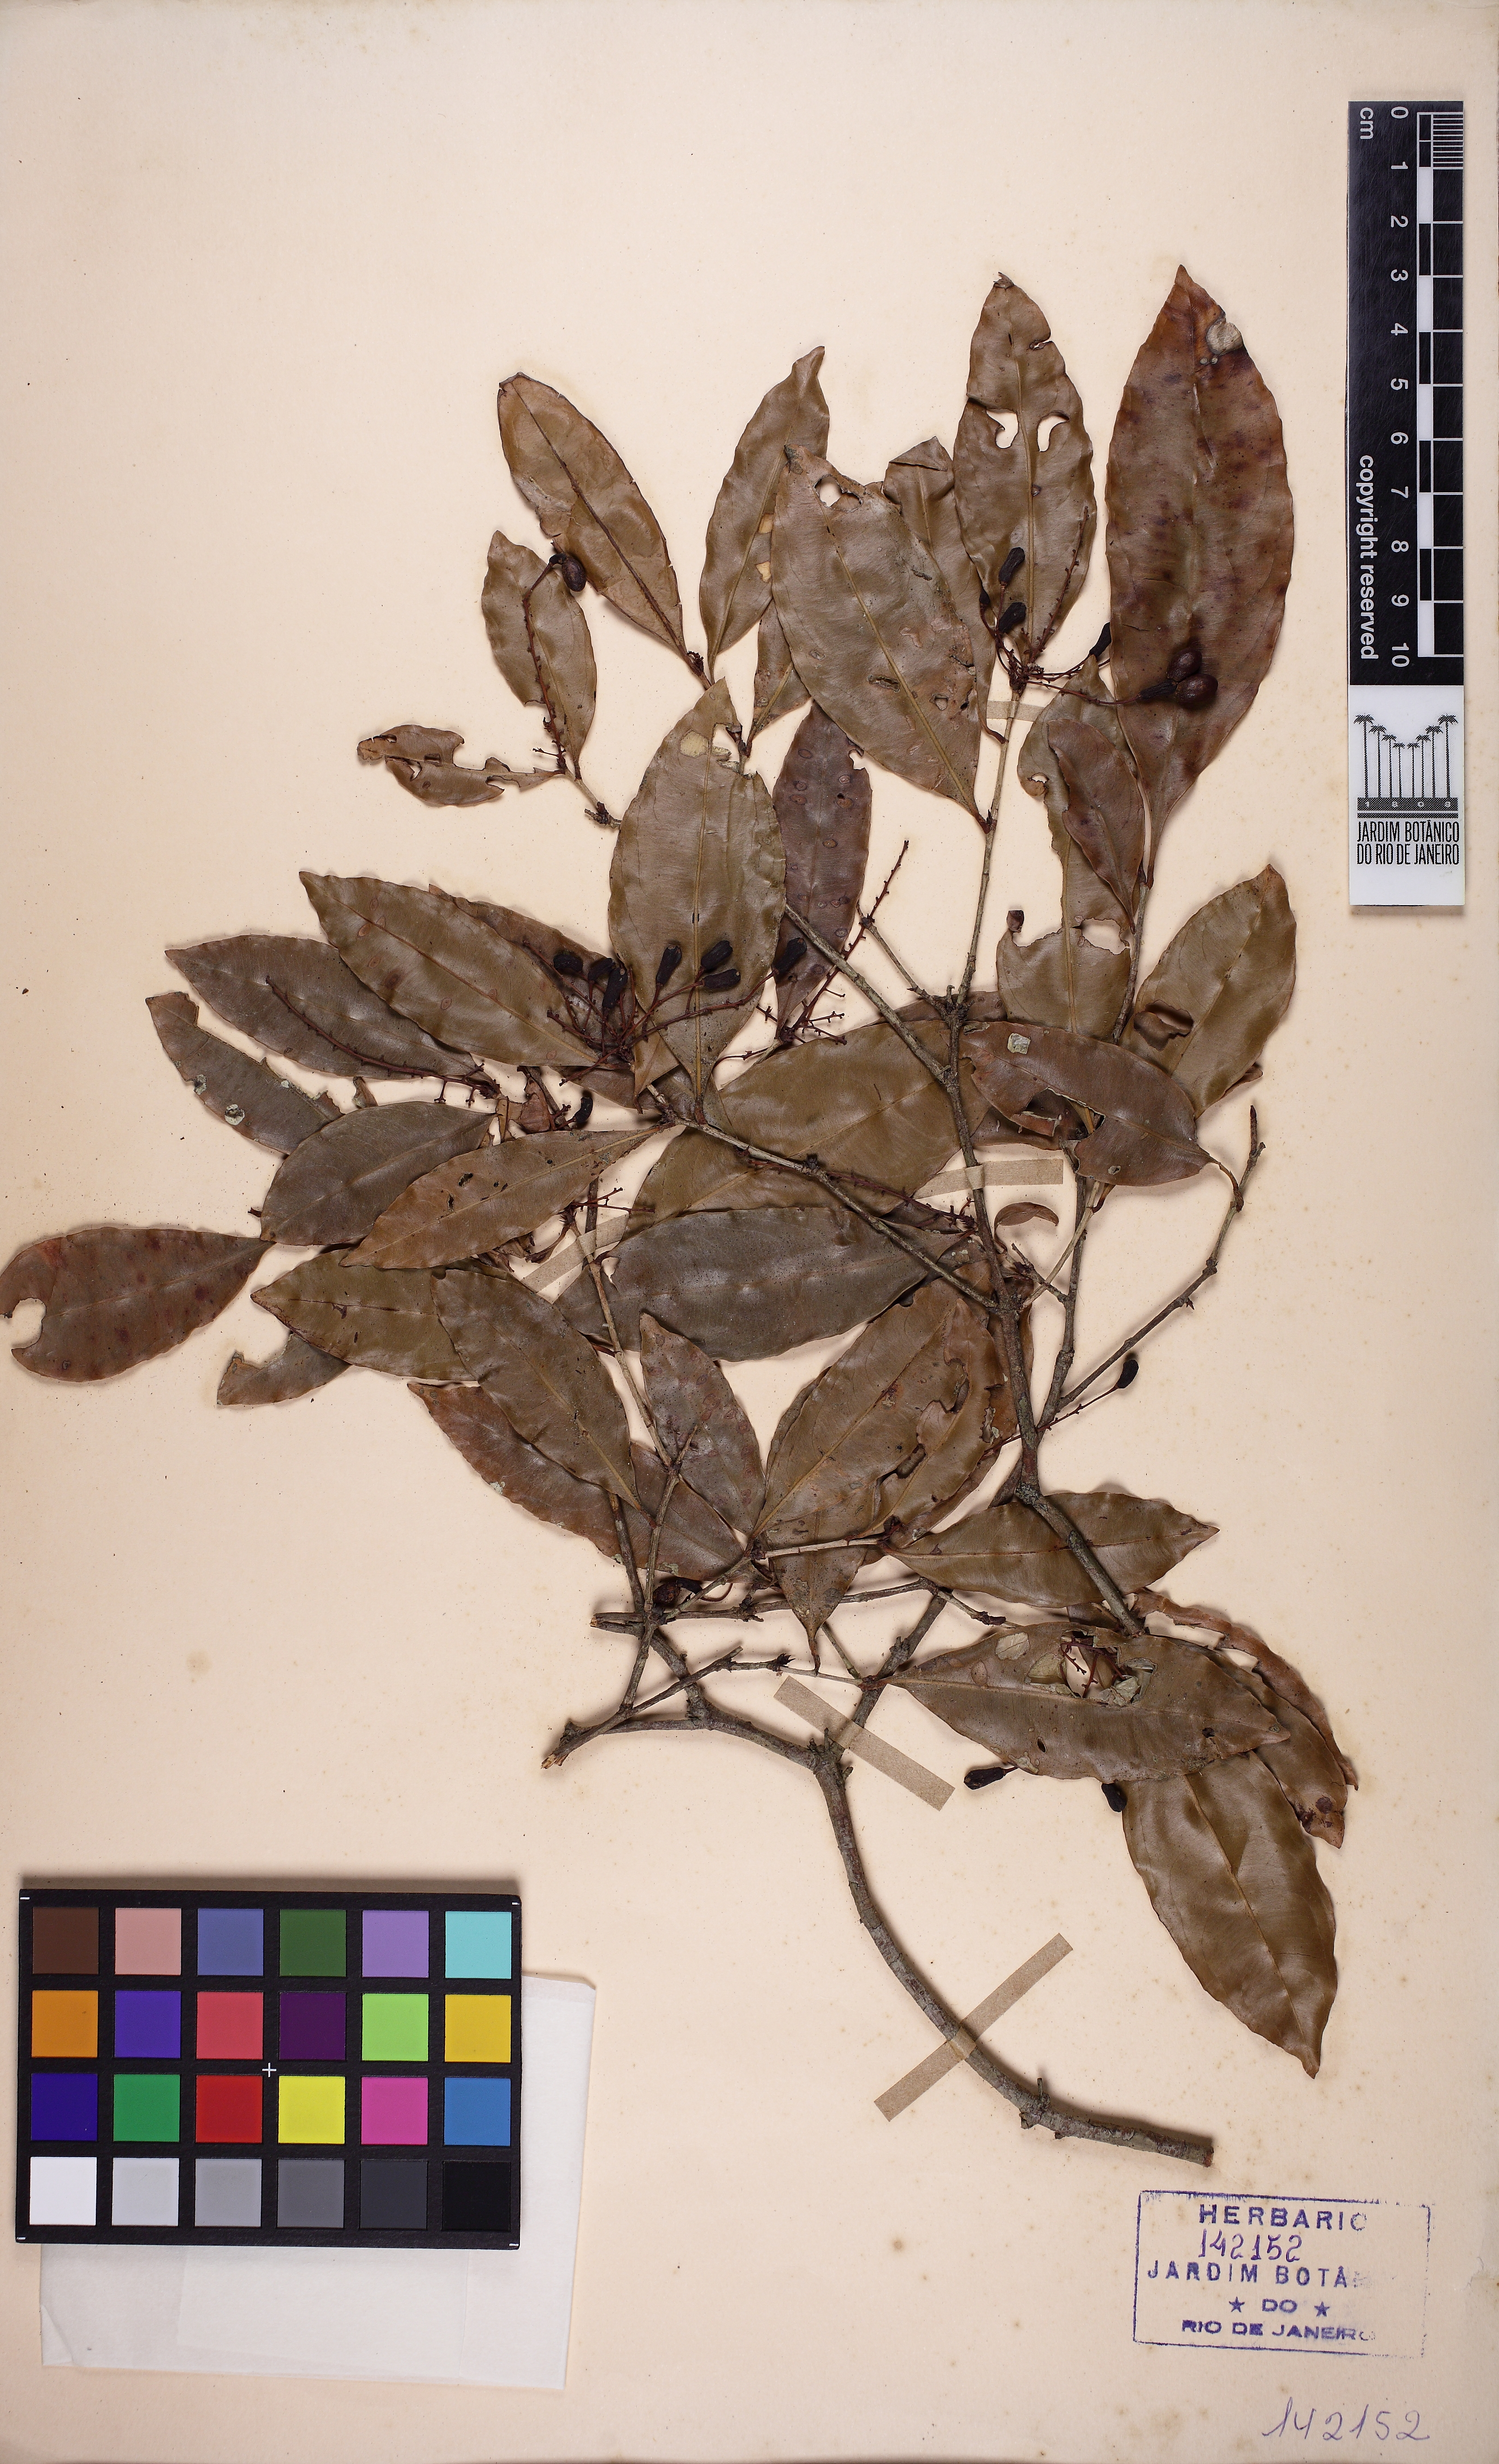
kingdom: Plantae
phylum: Tracheophyta
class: Magnoliopsida
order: Malpighiales
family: Ochnaceae
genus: Ouratea
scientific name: Ouratea parviflora
